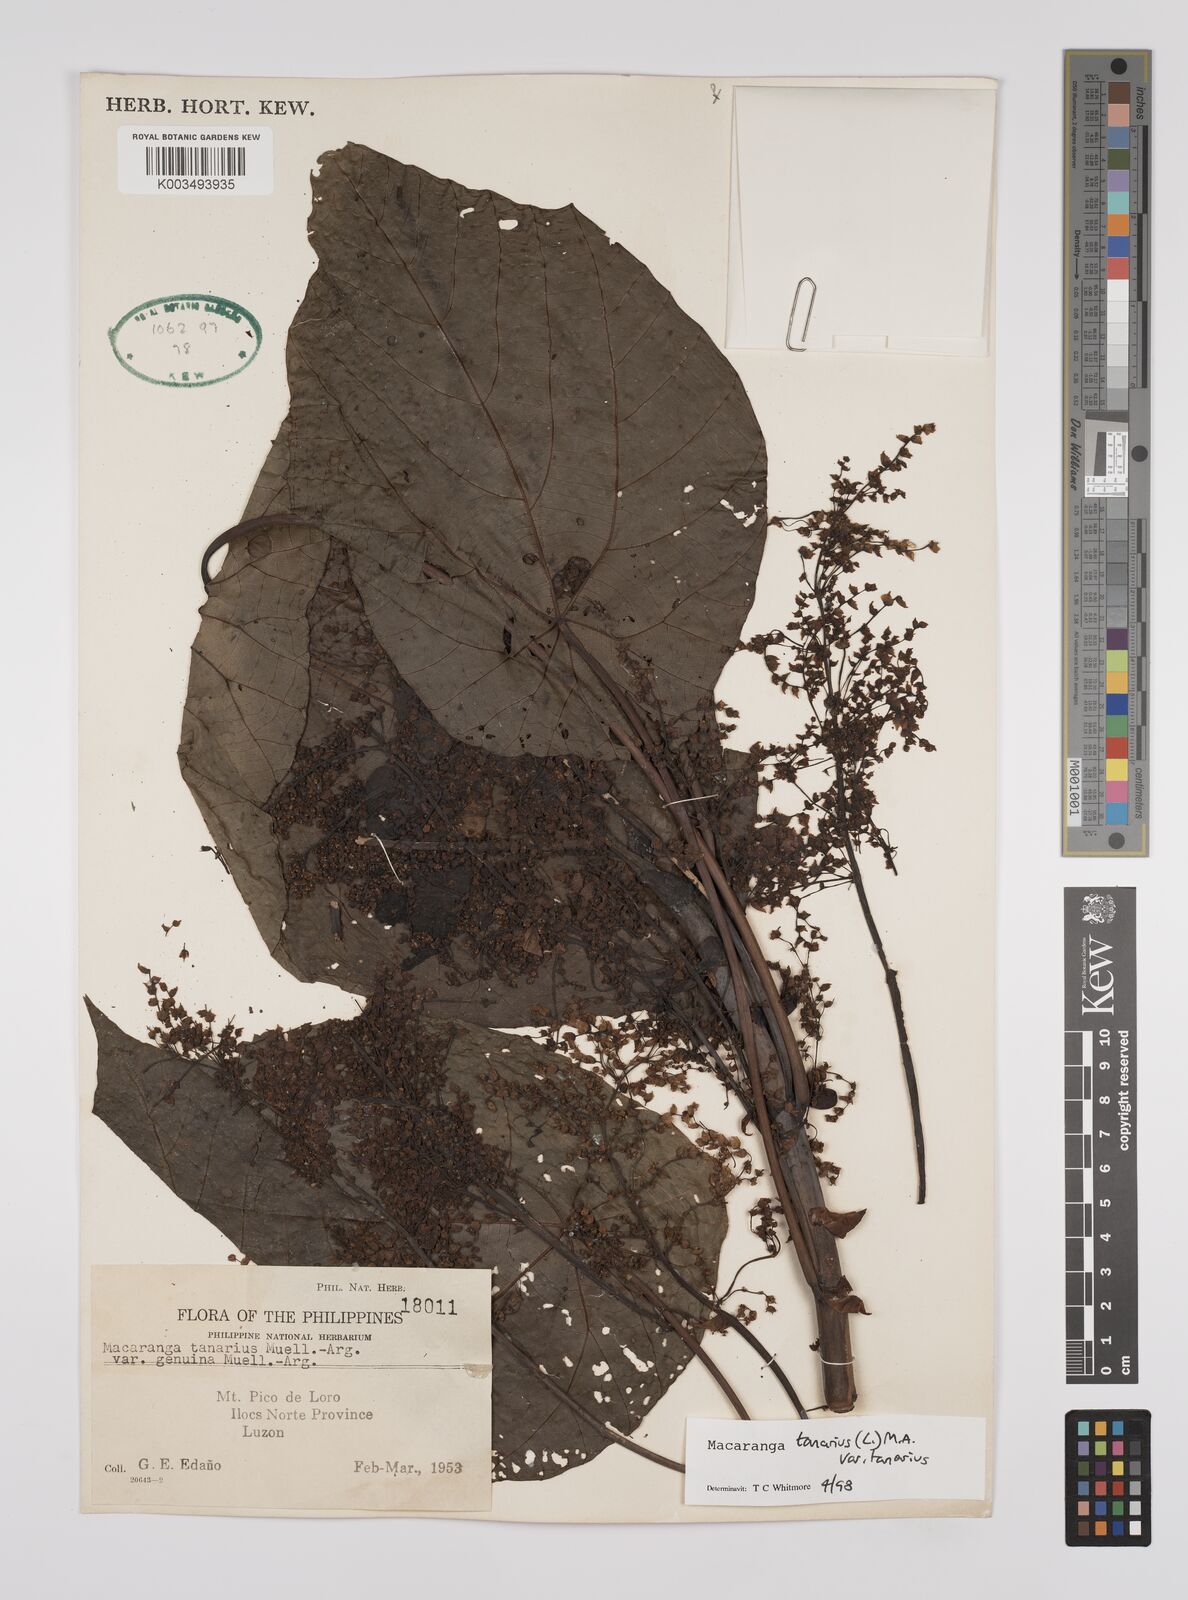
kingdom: Plantae
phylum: Tracheophyta
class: Magnoliopsida
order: Malpighiales
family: Euphorbiaceae
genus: Macaranga
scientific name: Macaranga tanarius
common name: Parasol leaf tree
